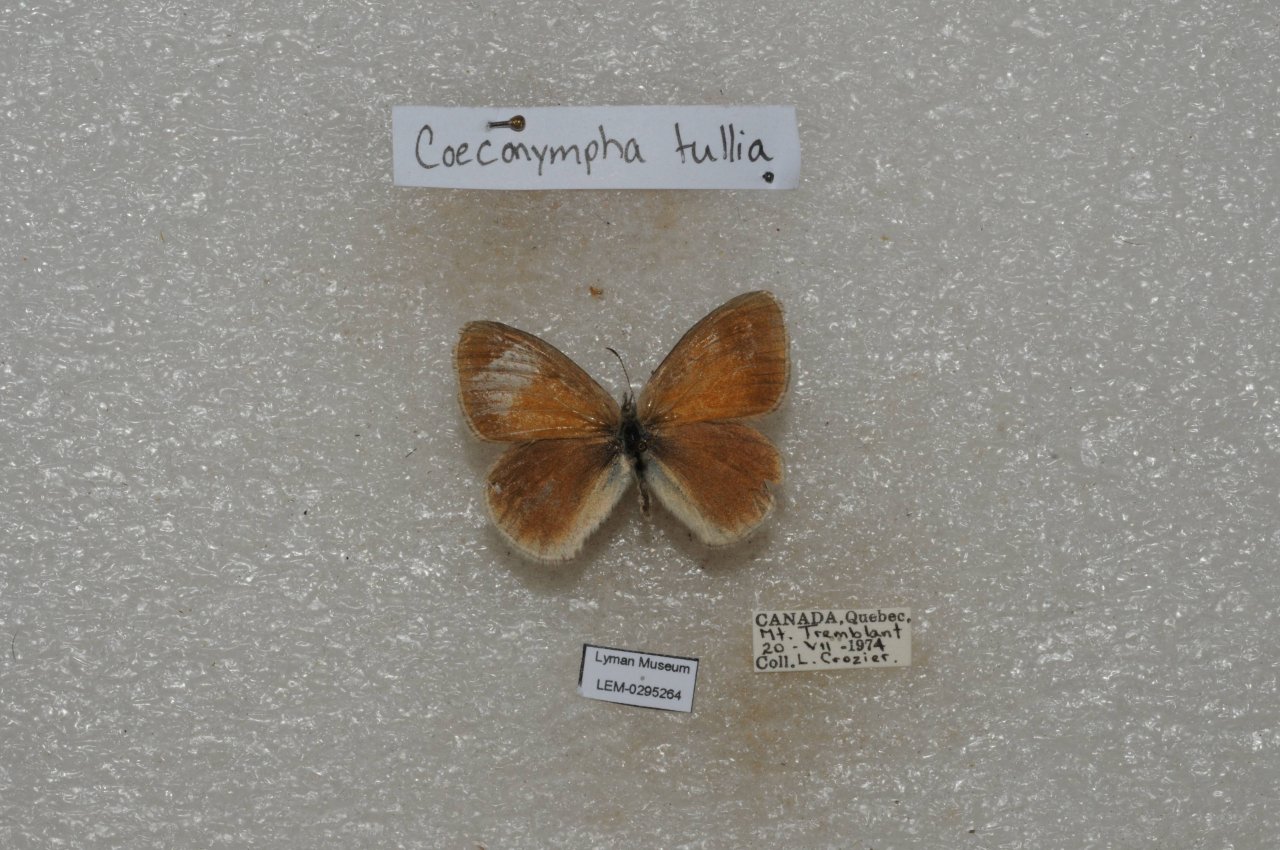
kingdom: Animalia
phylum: Arthropoda
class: Insecta
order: Lepidoptera
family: Nymphalidae
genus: Coenonympha
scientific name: Coenonympha tullia
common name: Large Heath
